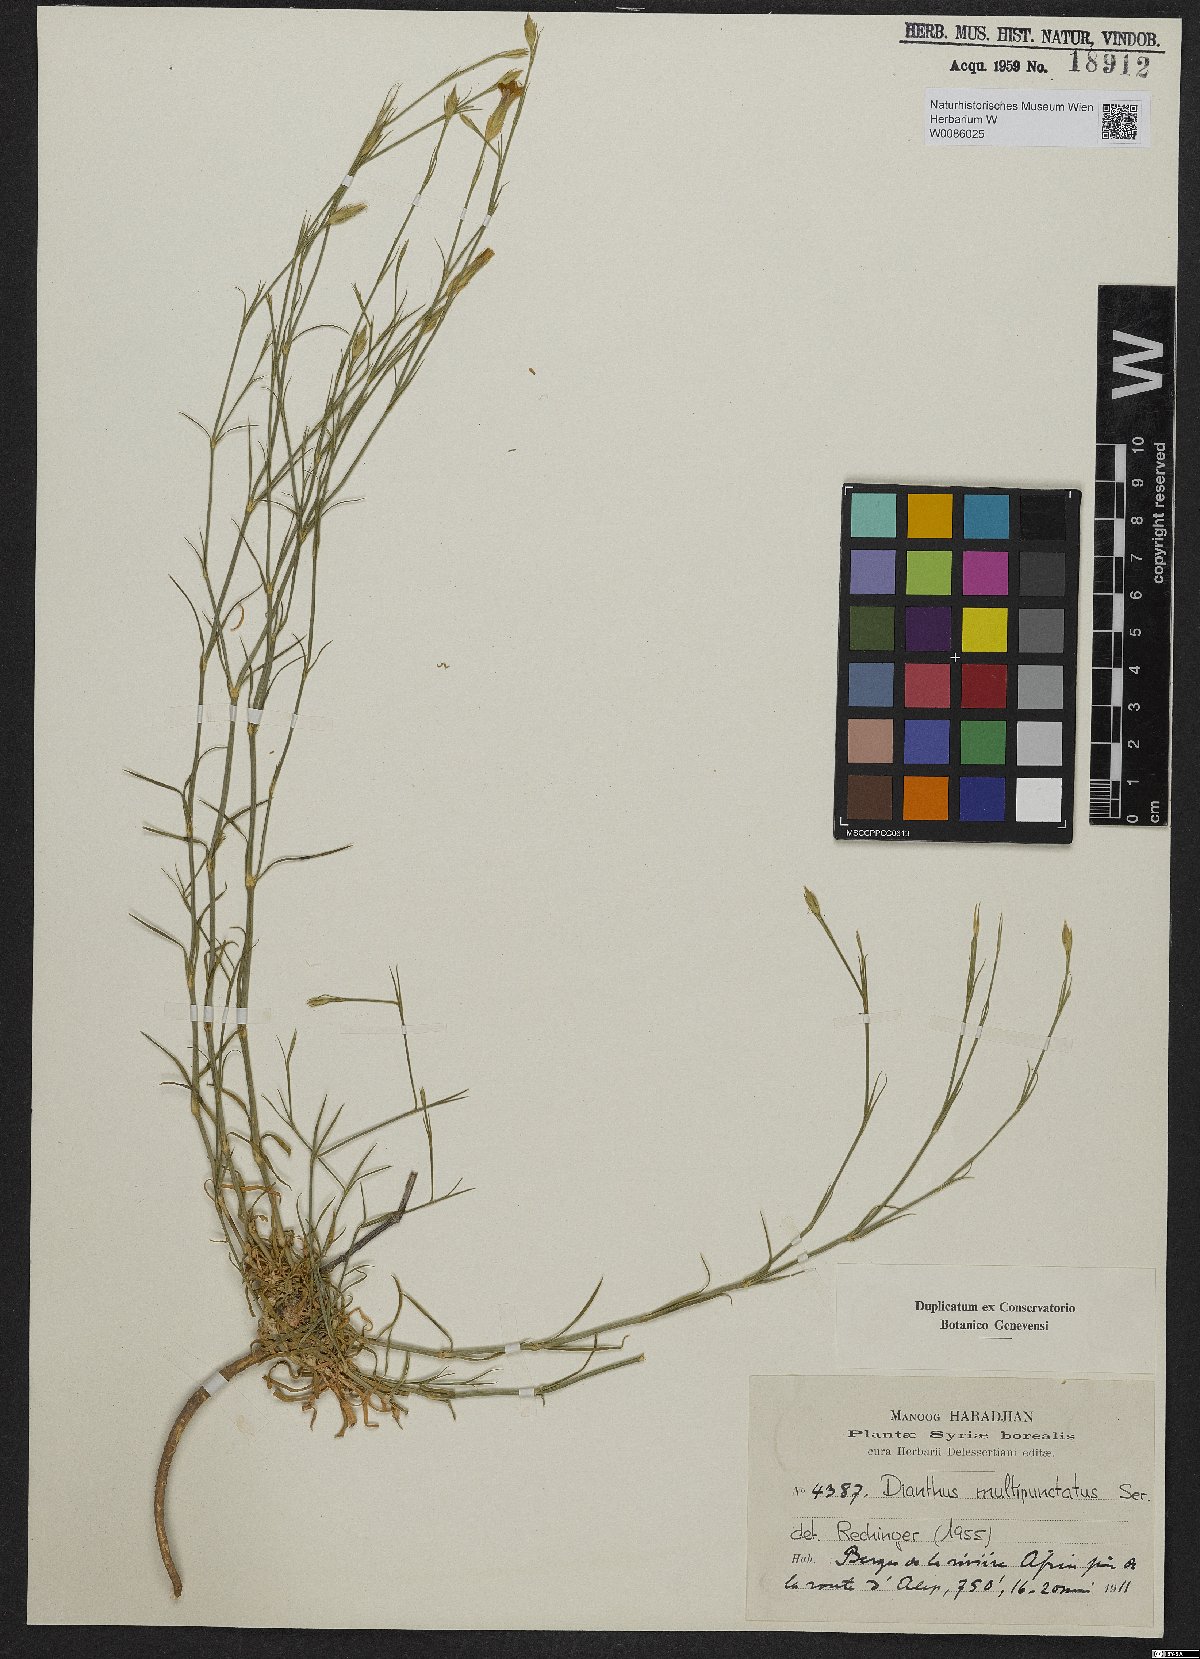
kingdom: Plantae
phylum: Tracheophyta
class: Magnoliopsida
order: Caryophyllales
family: Caryophyllaceae
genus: Dianthus
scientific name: Dianthus strictus
